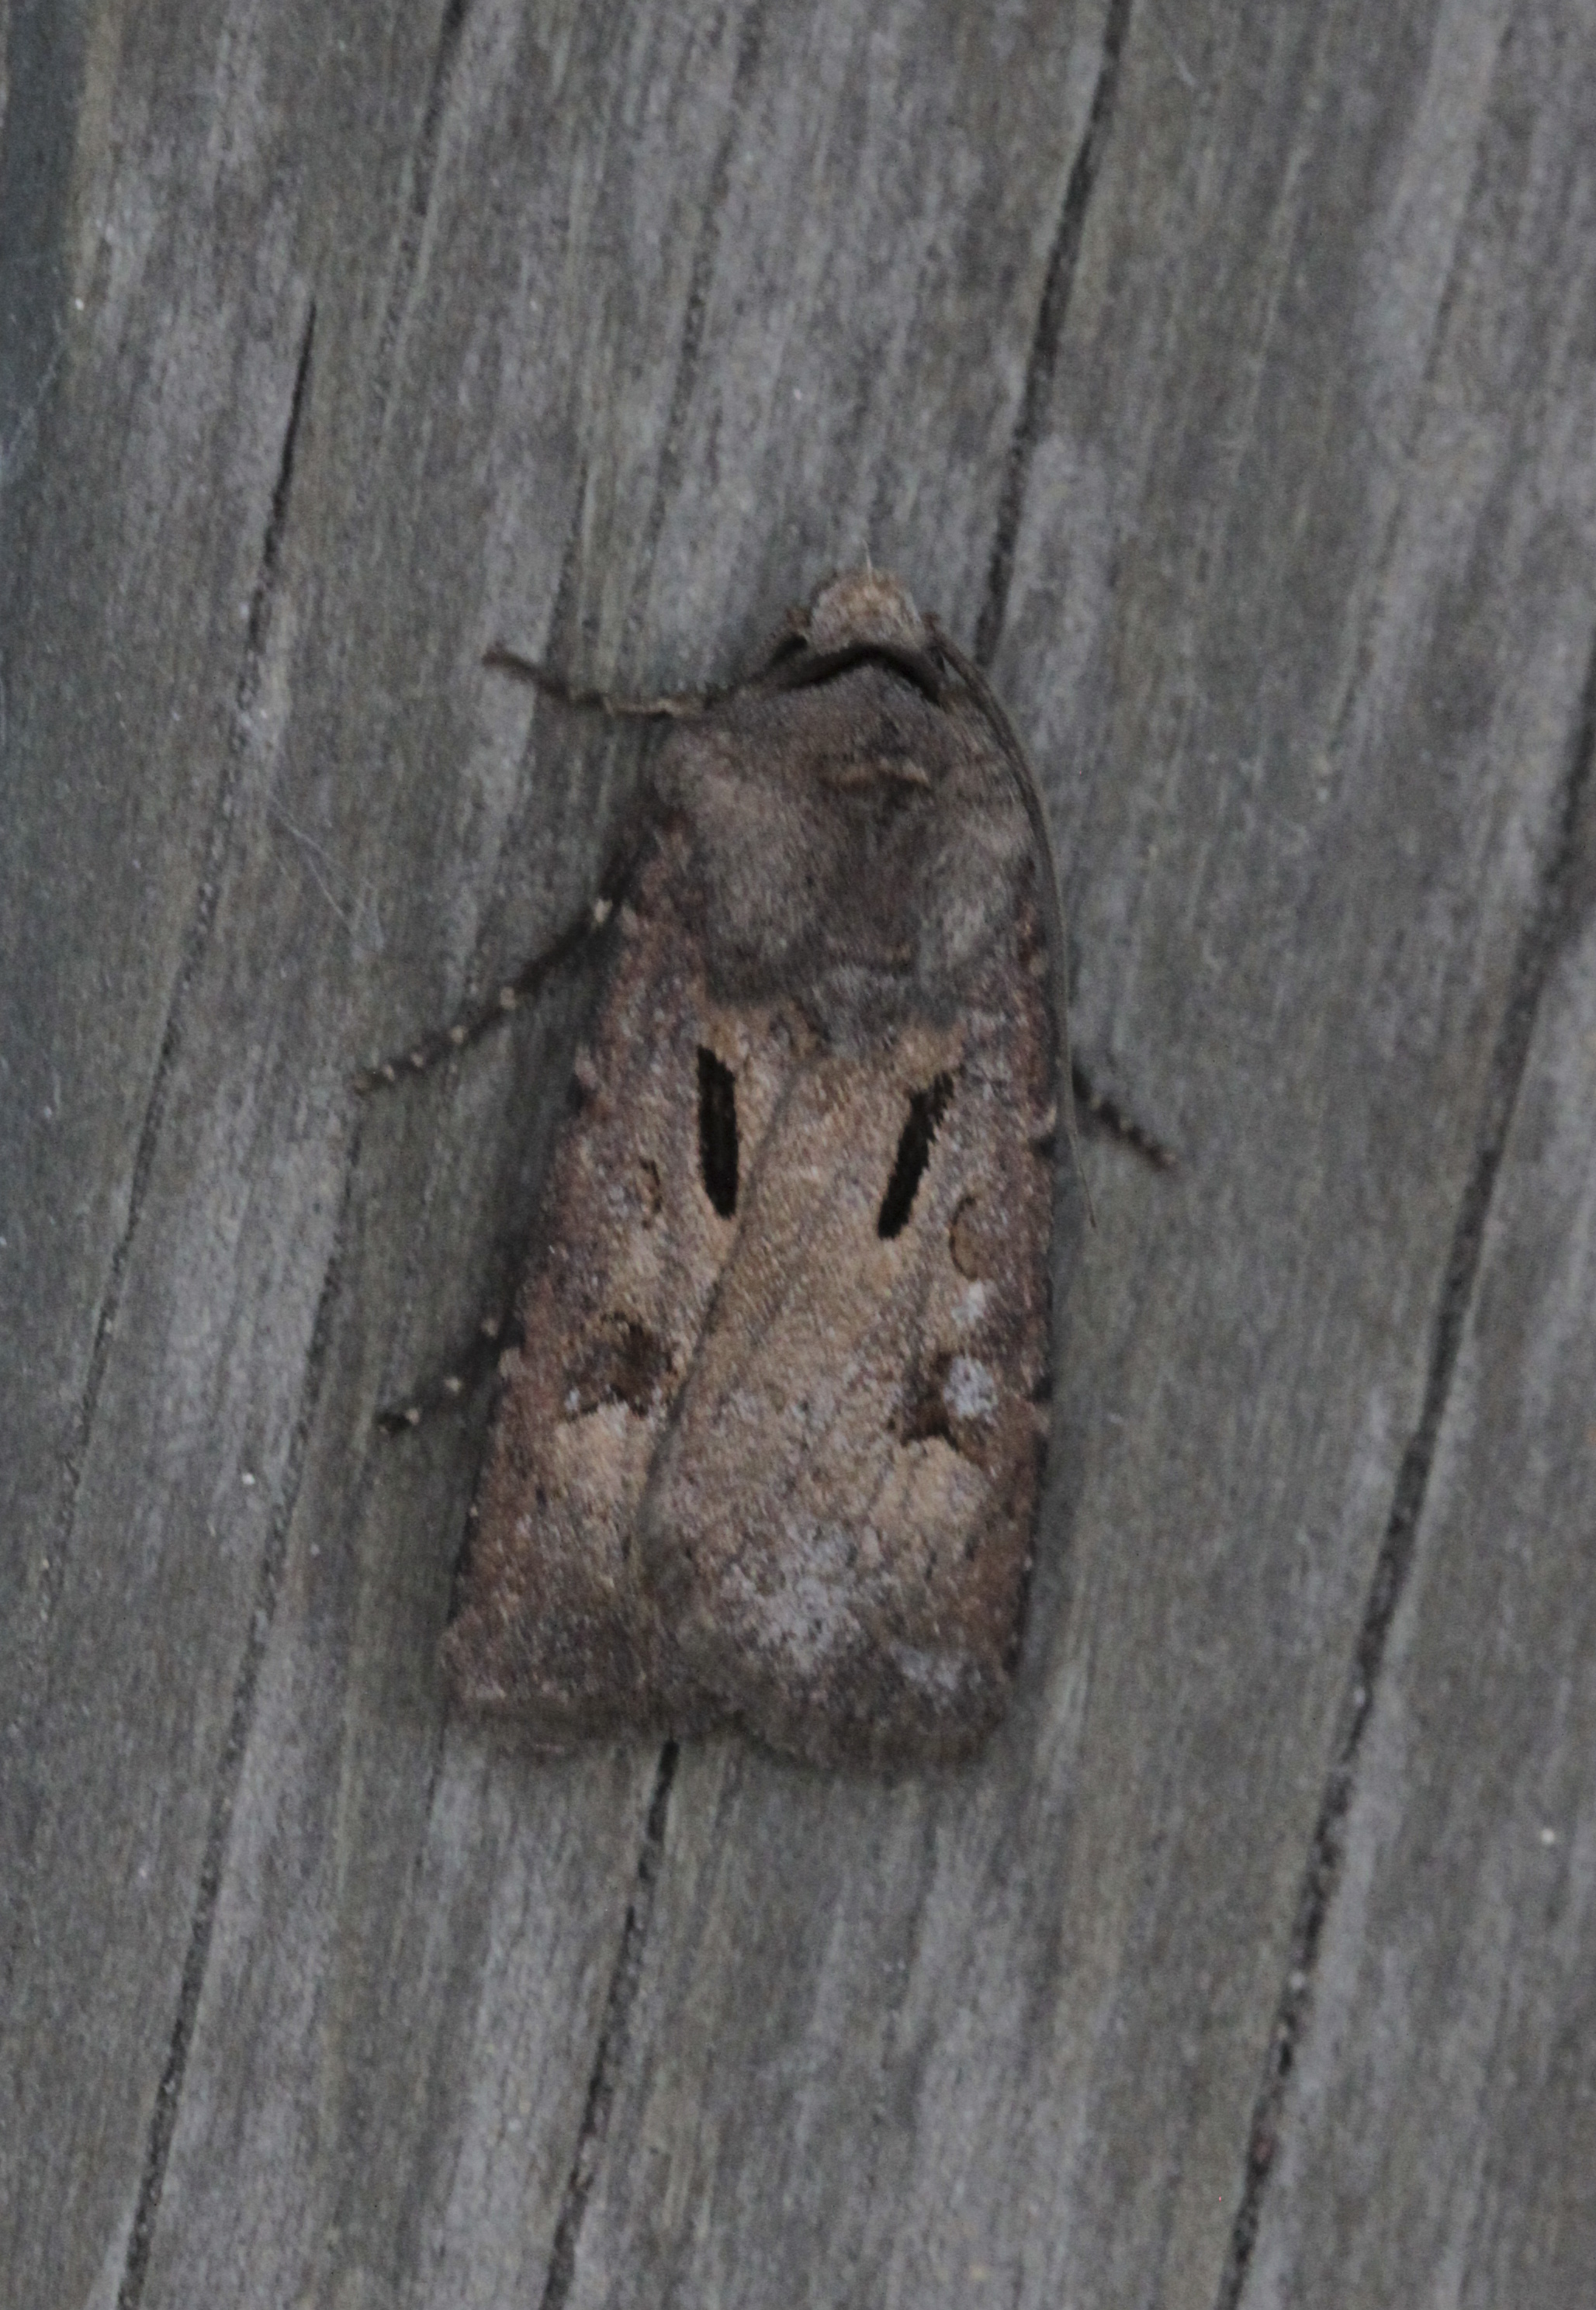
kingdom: Animalia
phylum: Arthropoda
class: Insecta
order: Lepidoptera
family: Noctuidae
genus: Agrotis
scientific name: Agrotis exclamationis
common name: Heart and dart
